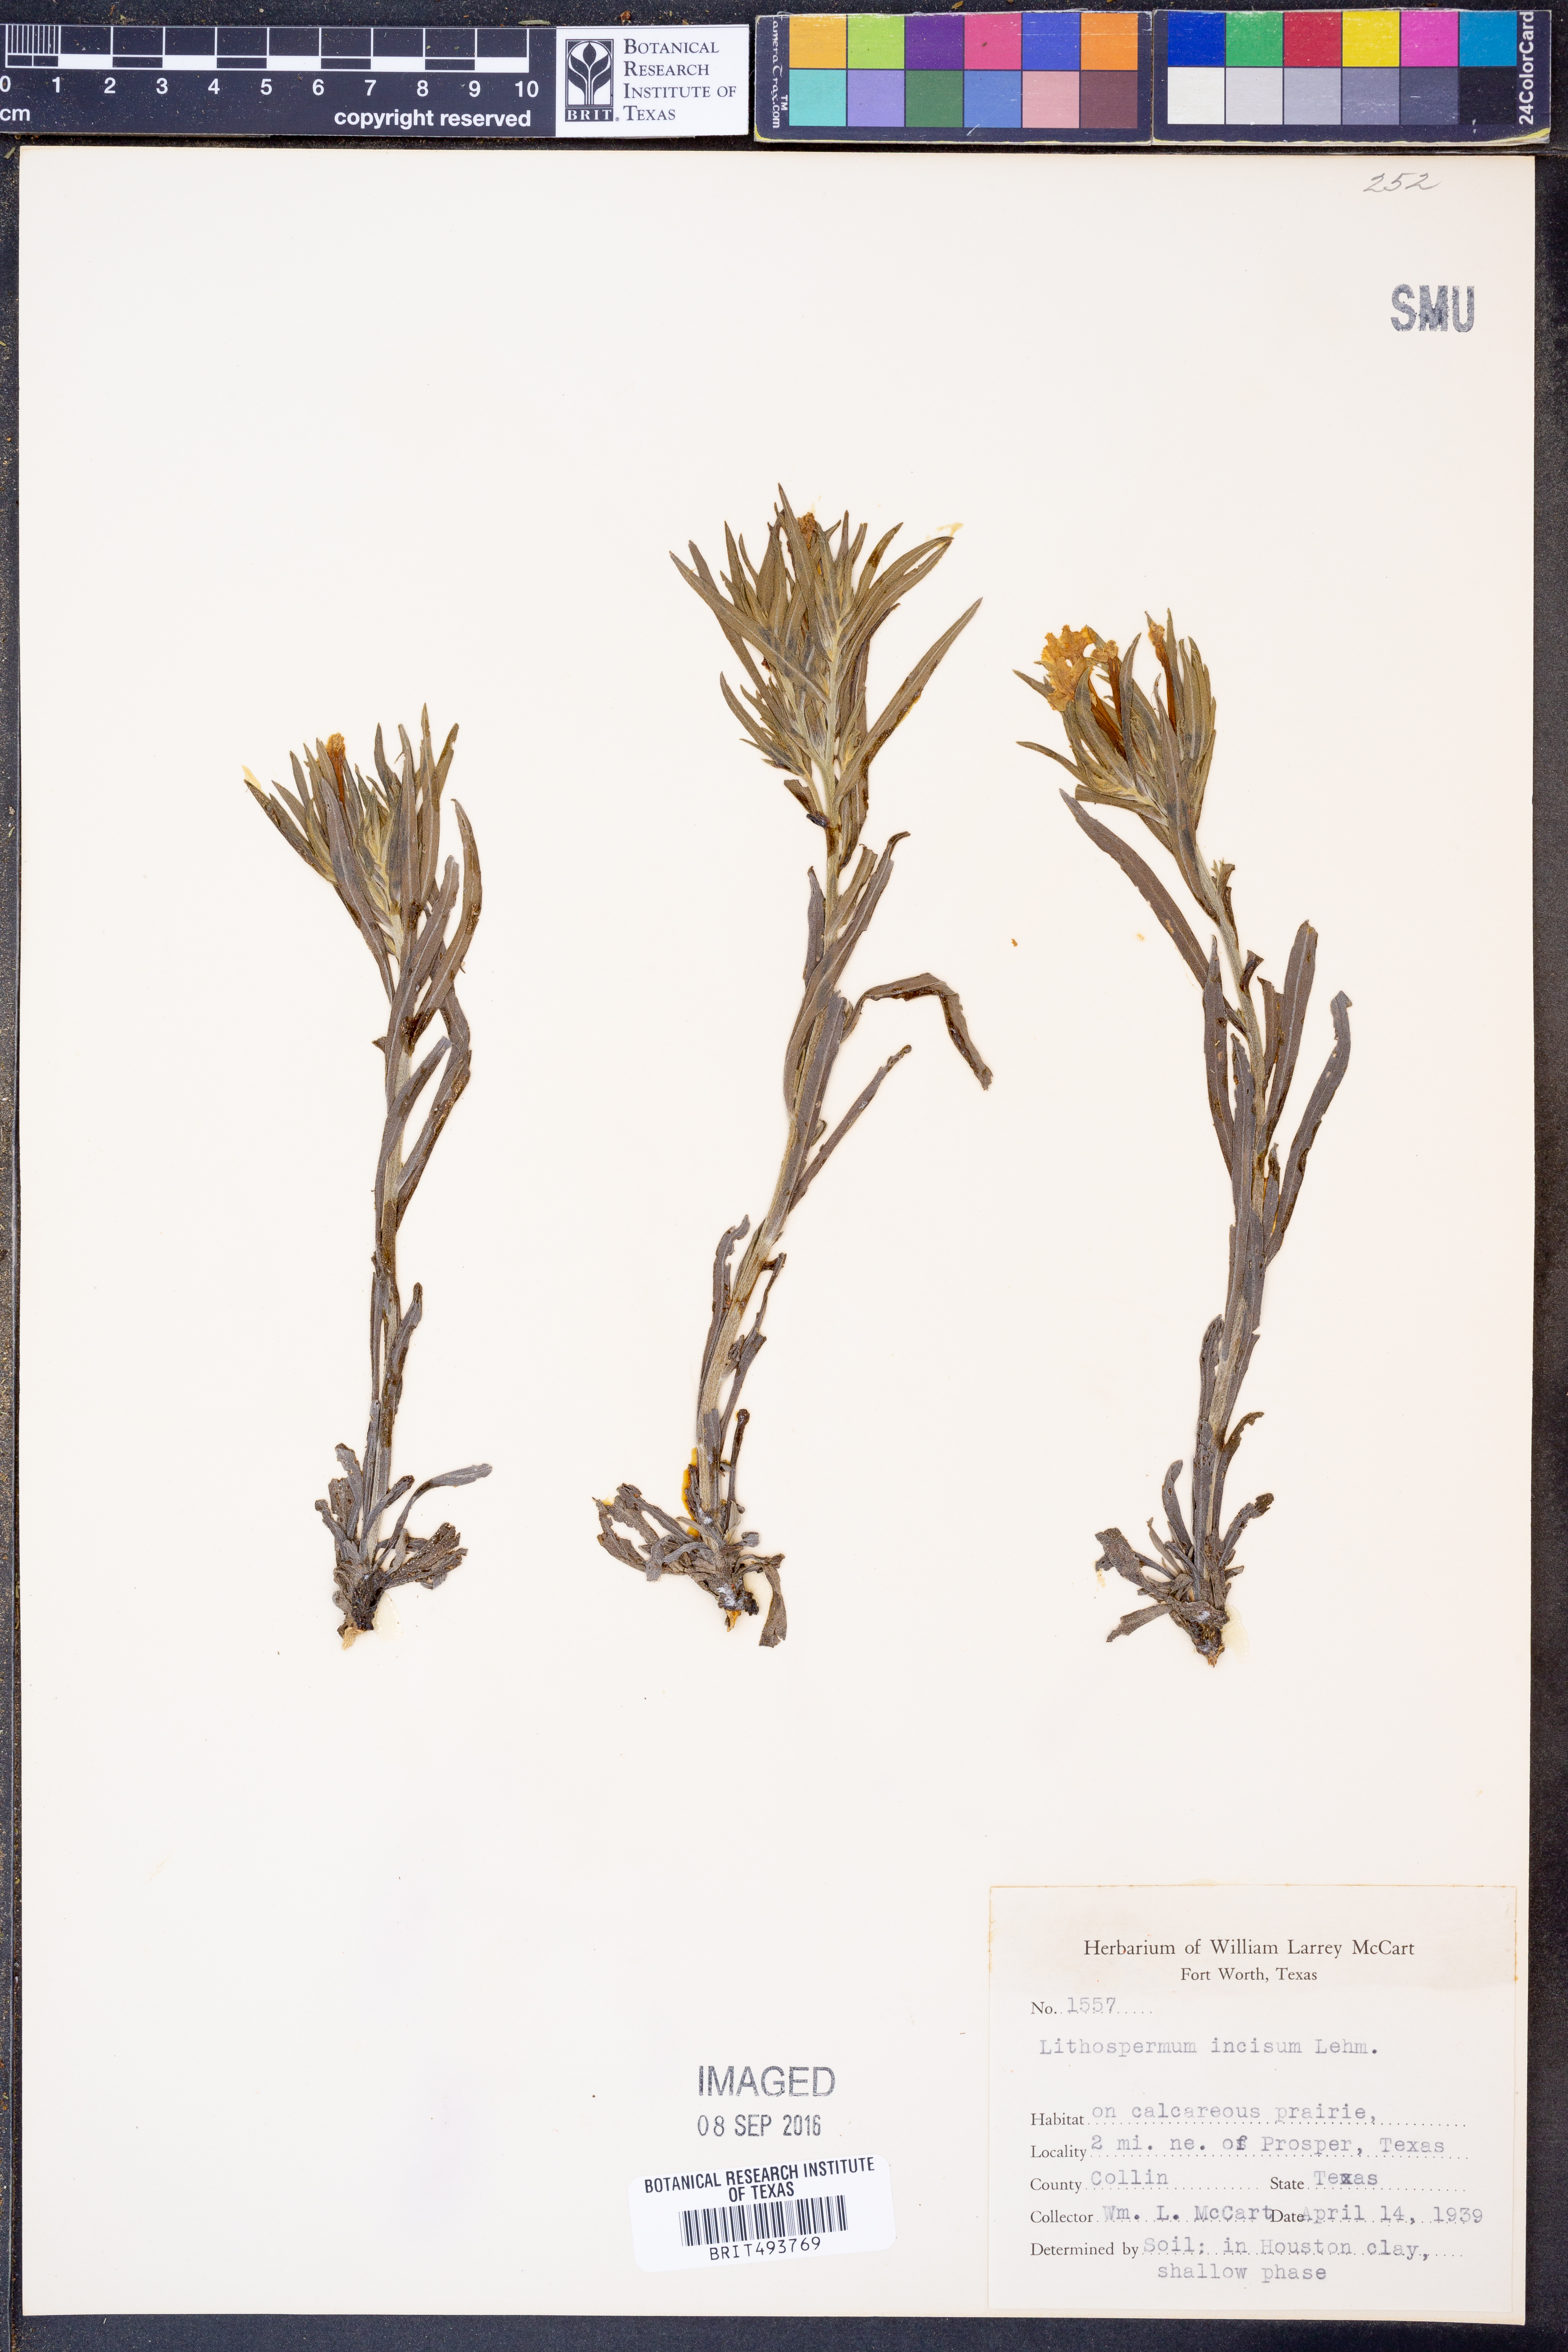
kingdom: Plantae
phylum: Tracheophyta
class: Magnoliopsida
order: Boraginales
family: Boraginaceae
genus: Lithospermum
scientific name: Lithospermum incisum
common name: Fringed gromwell
